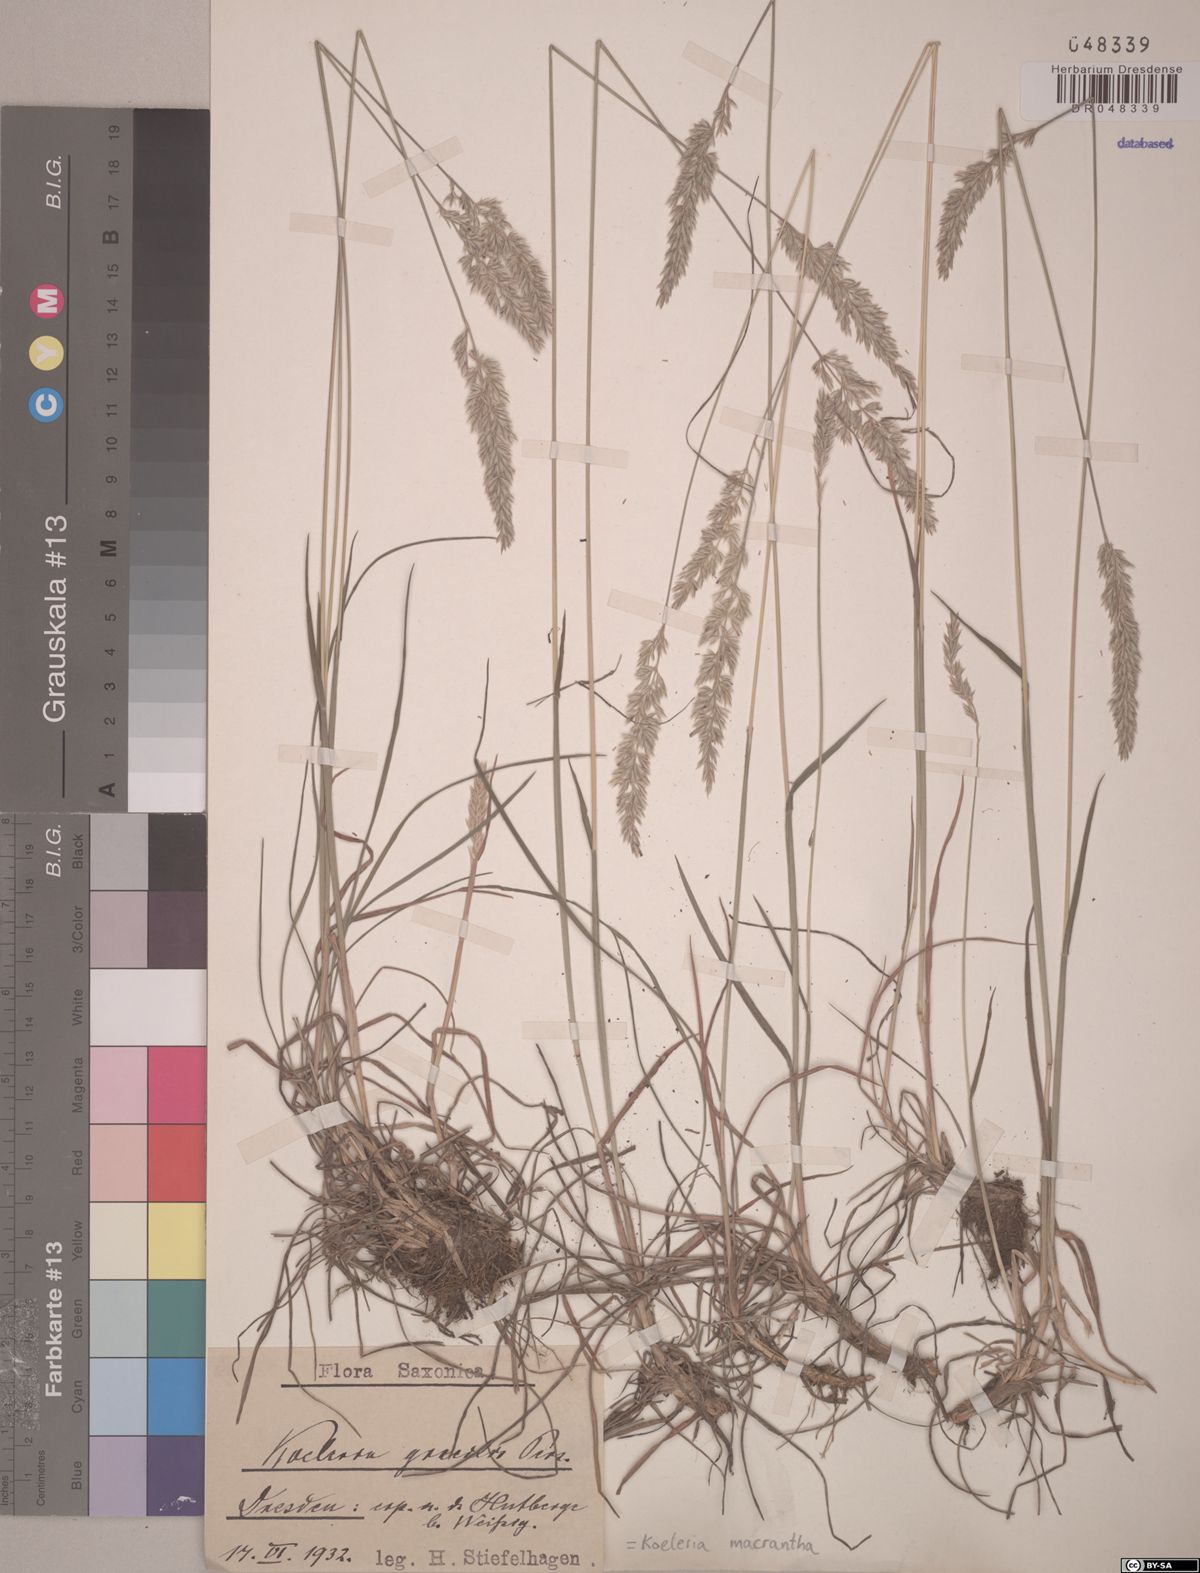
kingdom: Plantae
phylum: Tracheophyta
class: Liliopsida
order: Poales
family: Poaceae
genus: Koeleria
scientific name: Koeleria macrantha
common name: Crested hair-grass
